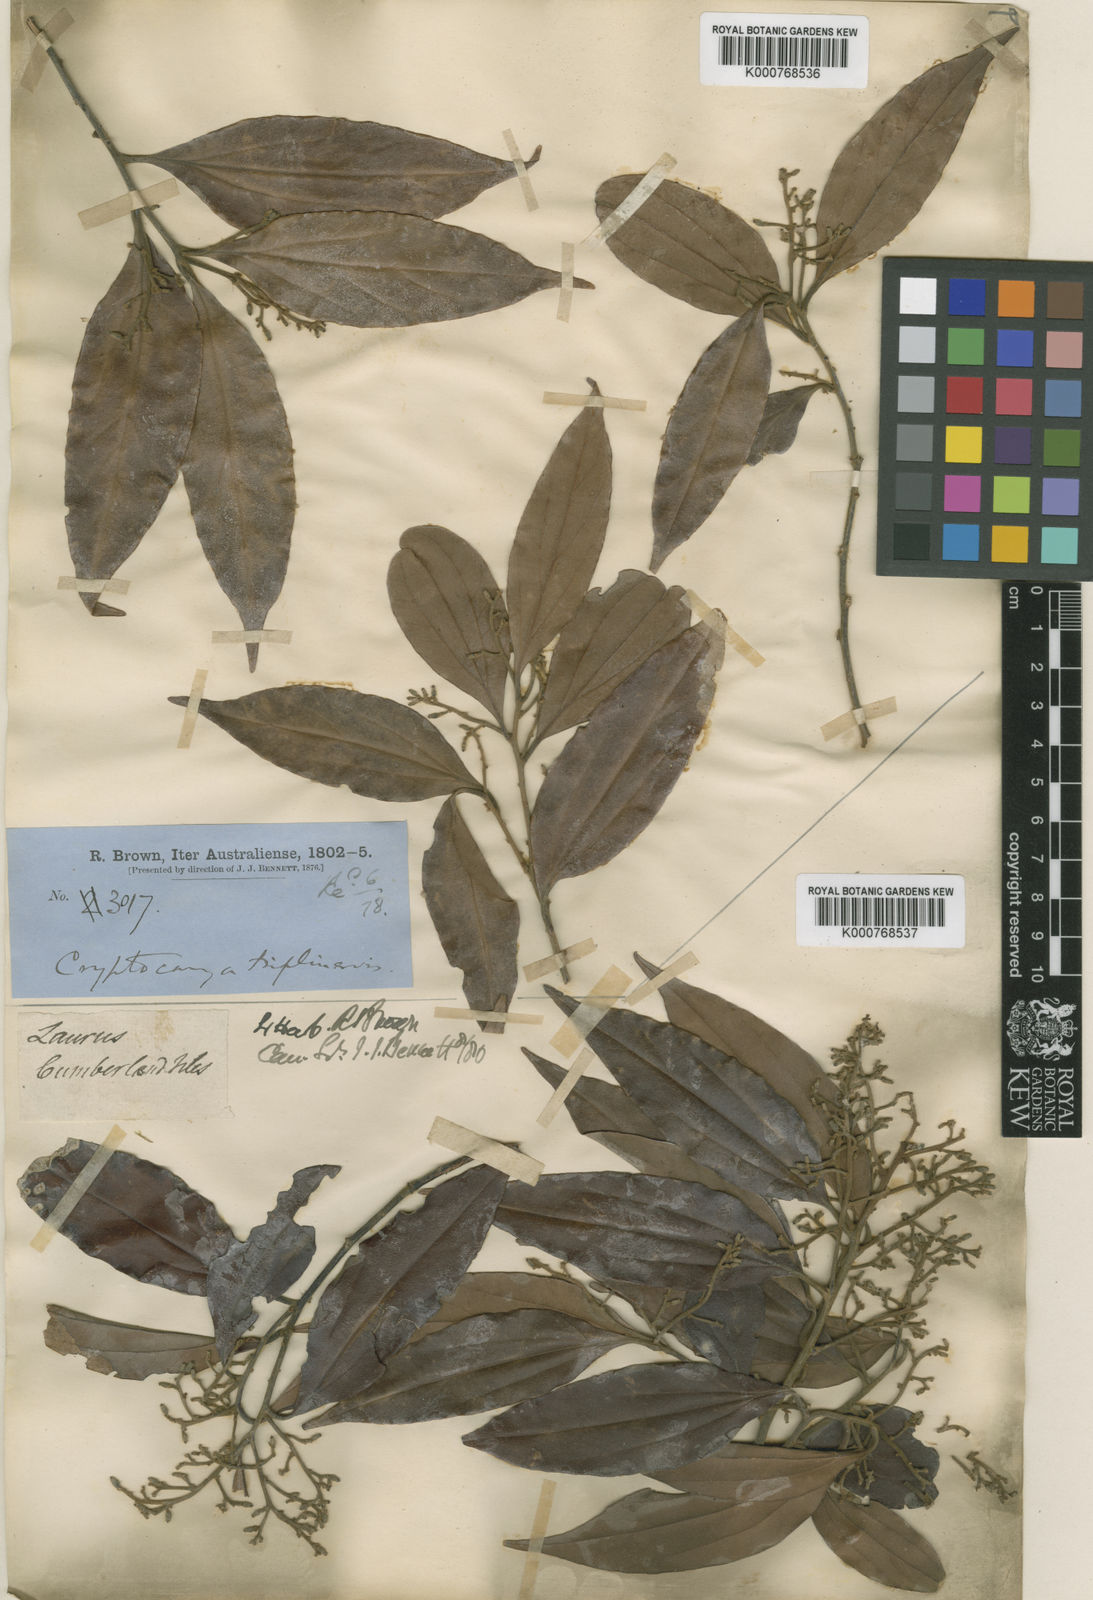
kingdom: Plantae
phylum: Tracheophyta
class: Magnoliopsida
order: Laurales
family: Lauraceae
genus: Cryptocarya
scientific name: Cryptocarya triplinervis
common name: Three-vein cryptocarya
